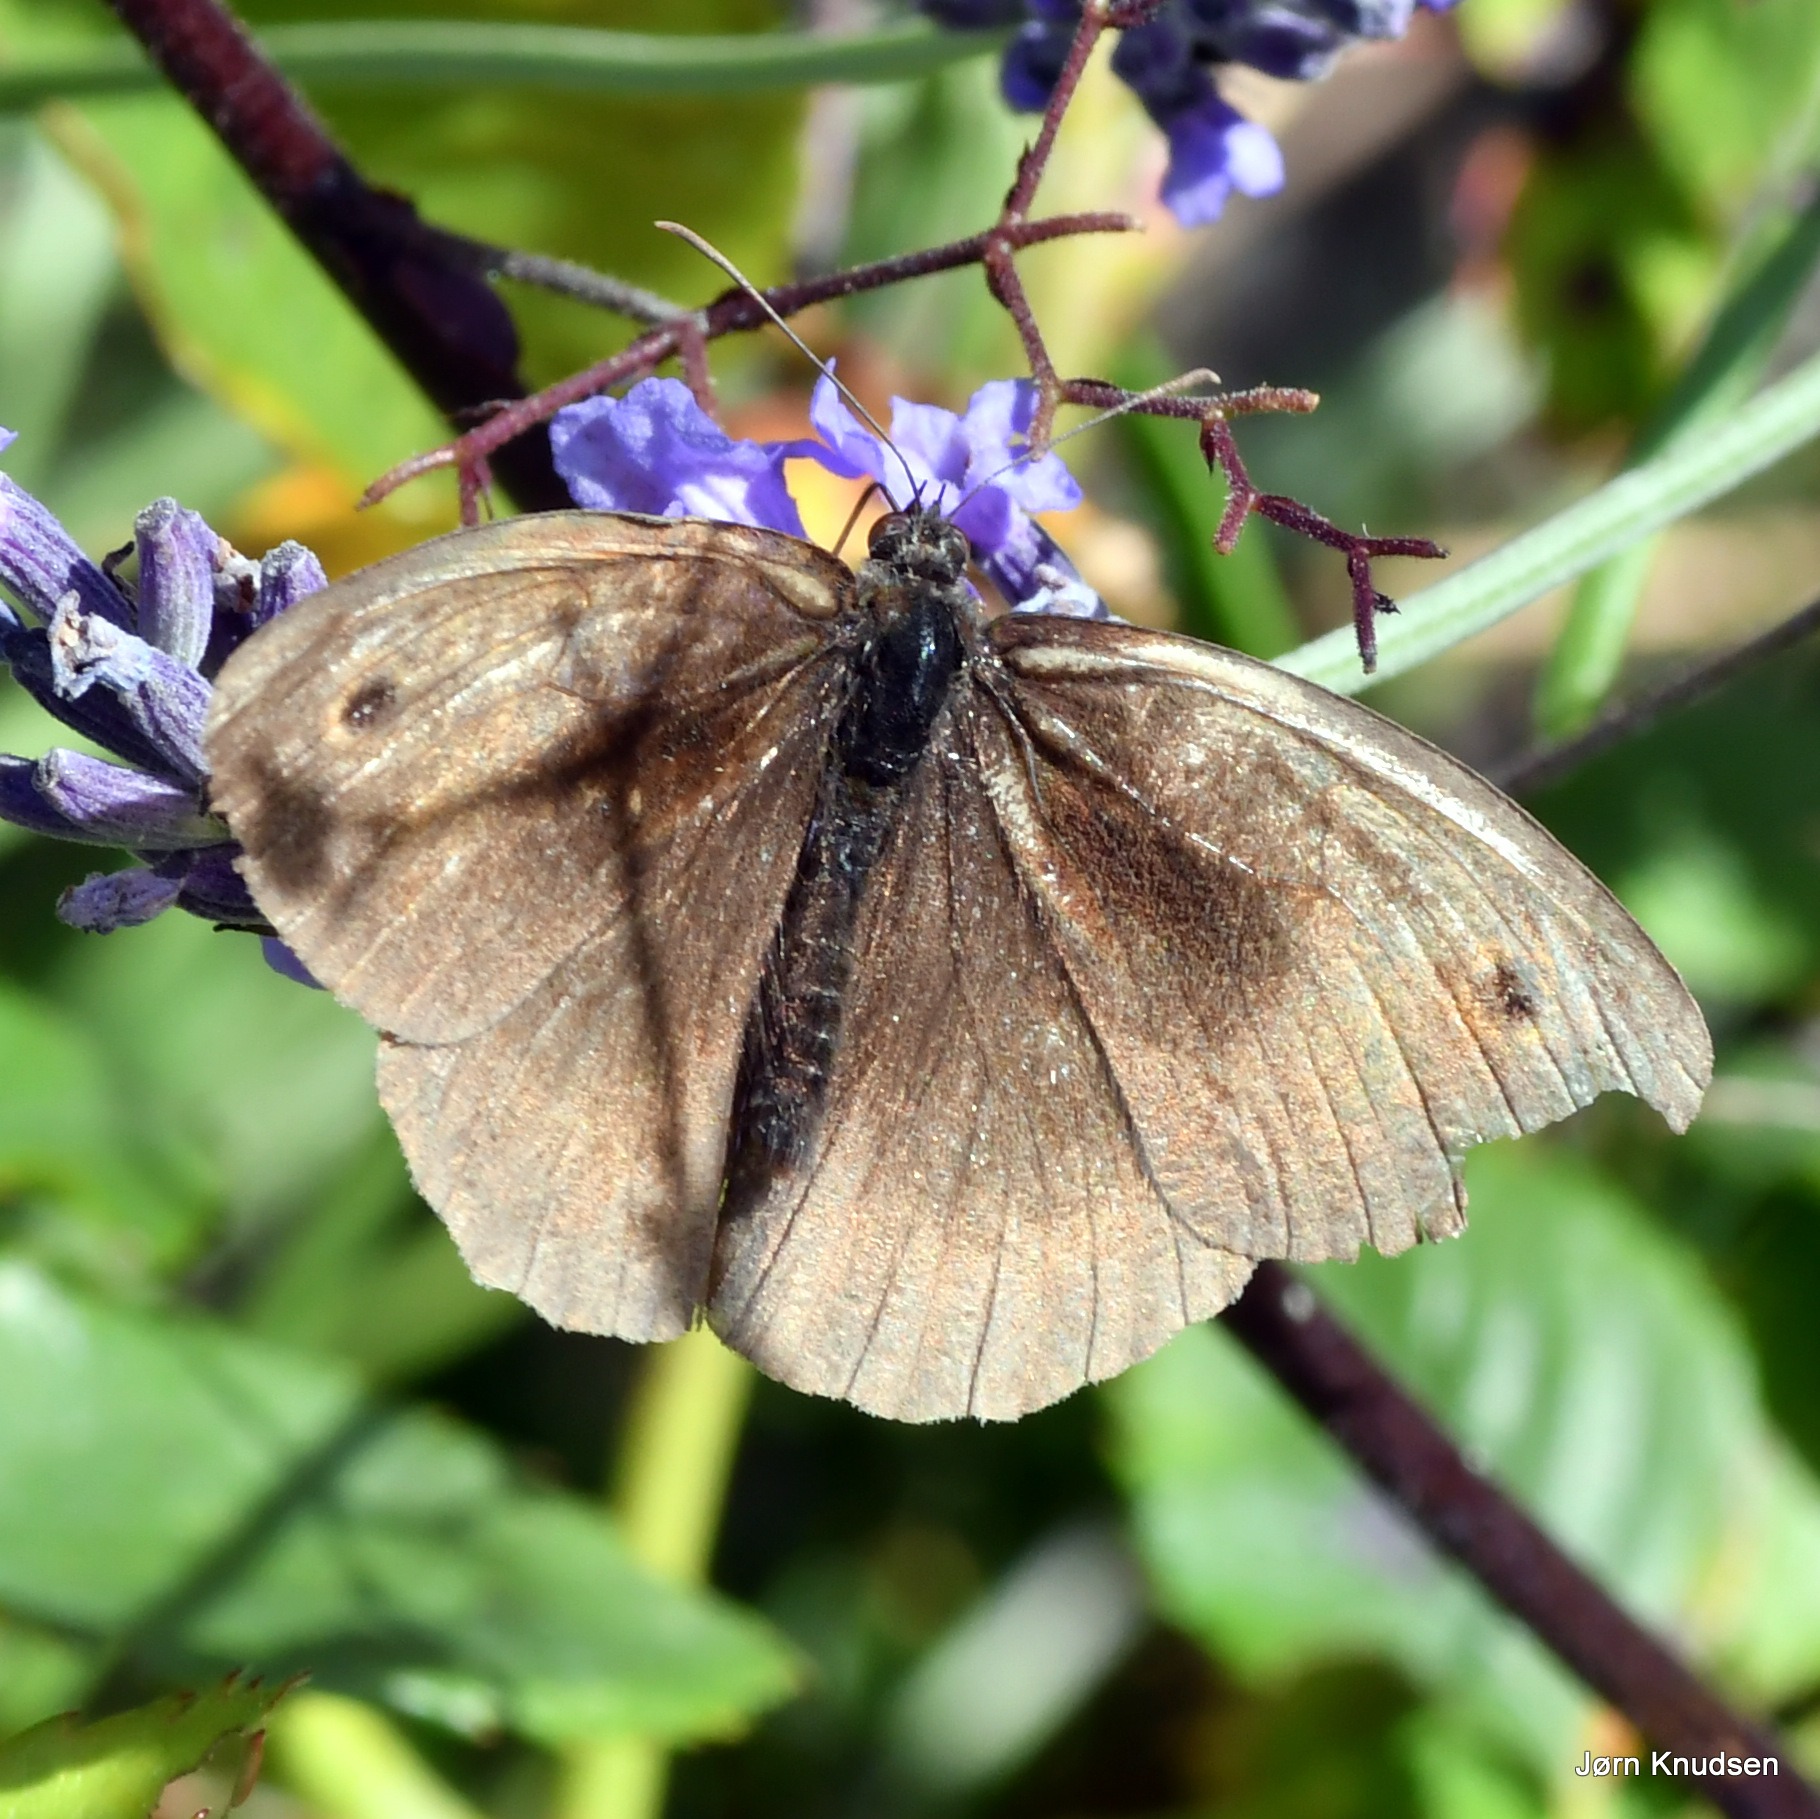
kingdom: Animalia
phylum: Arthropoda
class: Insecta
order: Lepidoptera
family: Nymphalidae
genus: Maniola
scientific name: Maniola jurtina
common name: Græsrandøje
